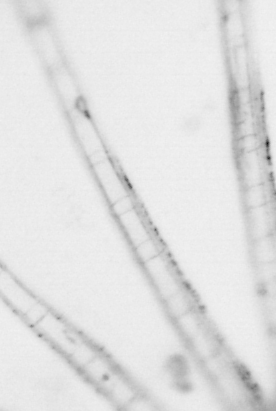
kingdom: Animalia
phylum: Chordata
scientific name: Chordata
